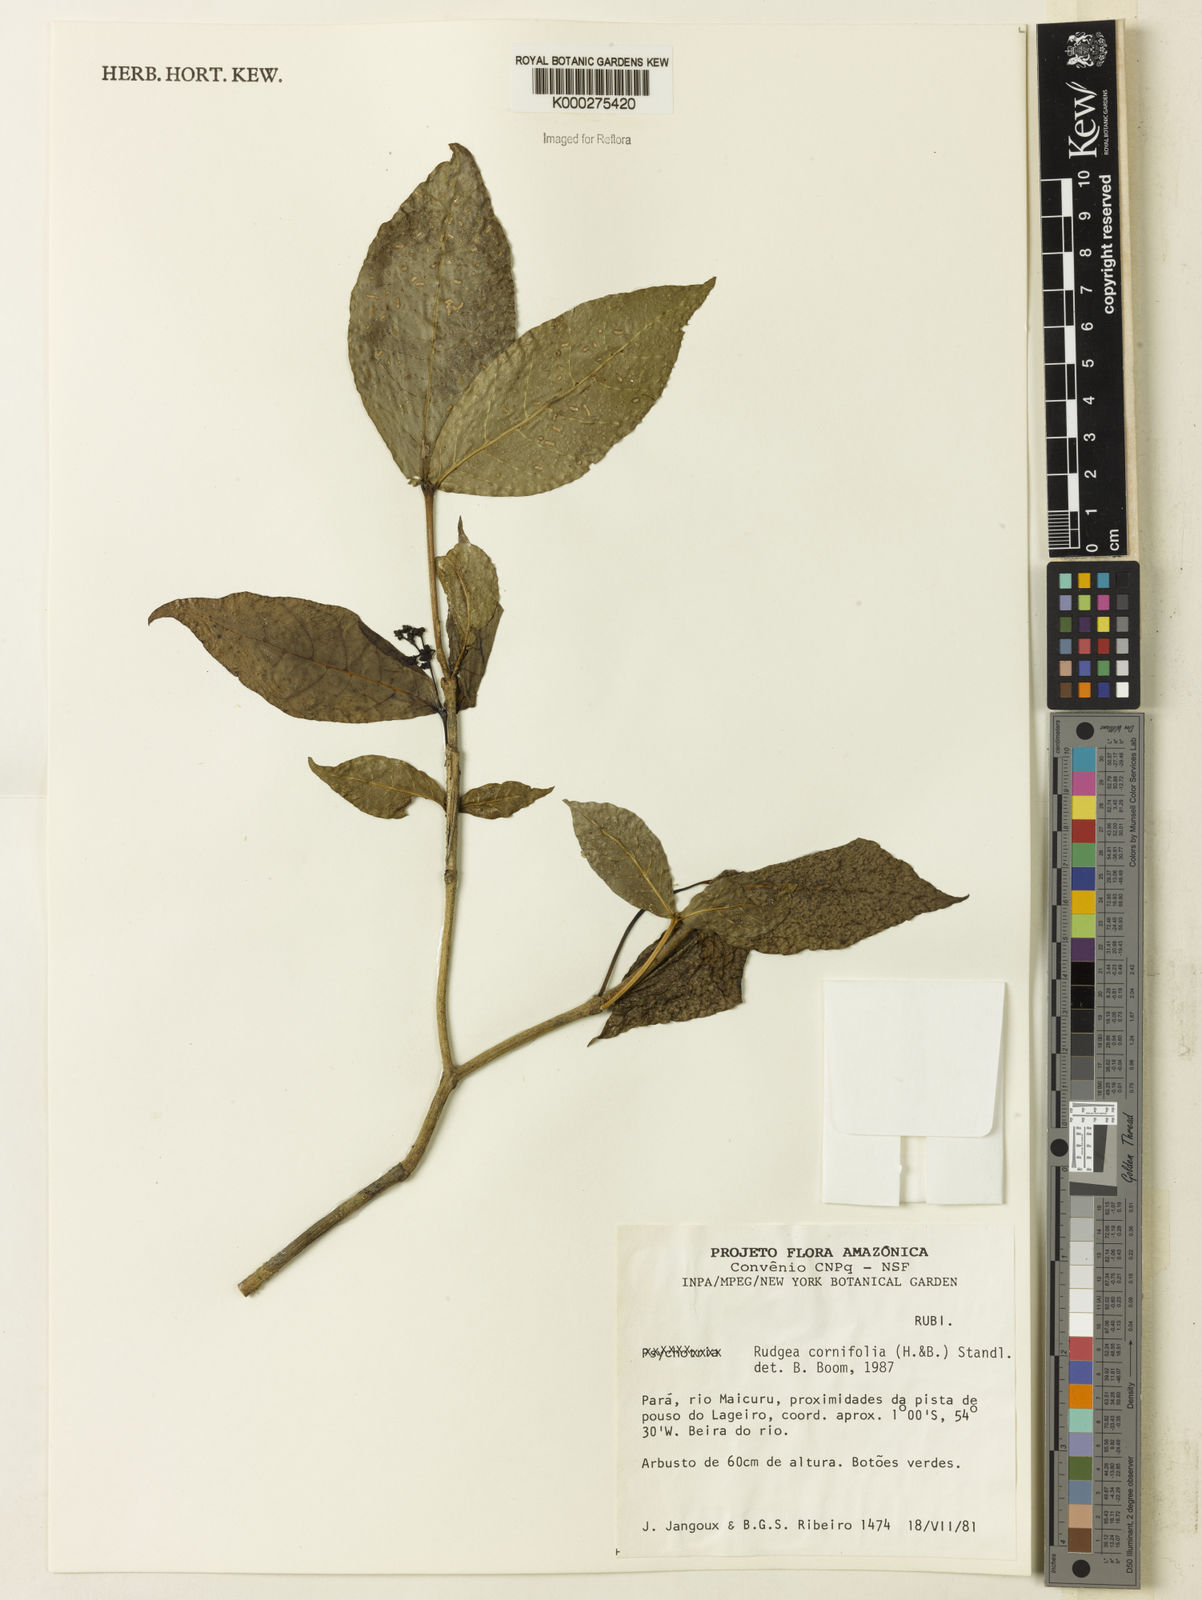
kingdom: Plantae
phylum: Tracheophyta
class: Magnoliopsida
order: Gentianales
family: Rubiaceae
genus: Rudgea
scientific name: Rudgea cornifolia
